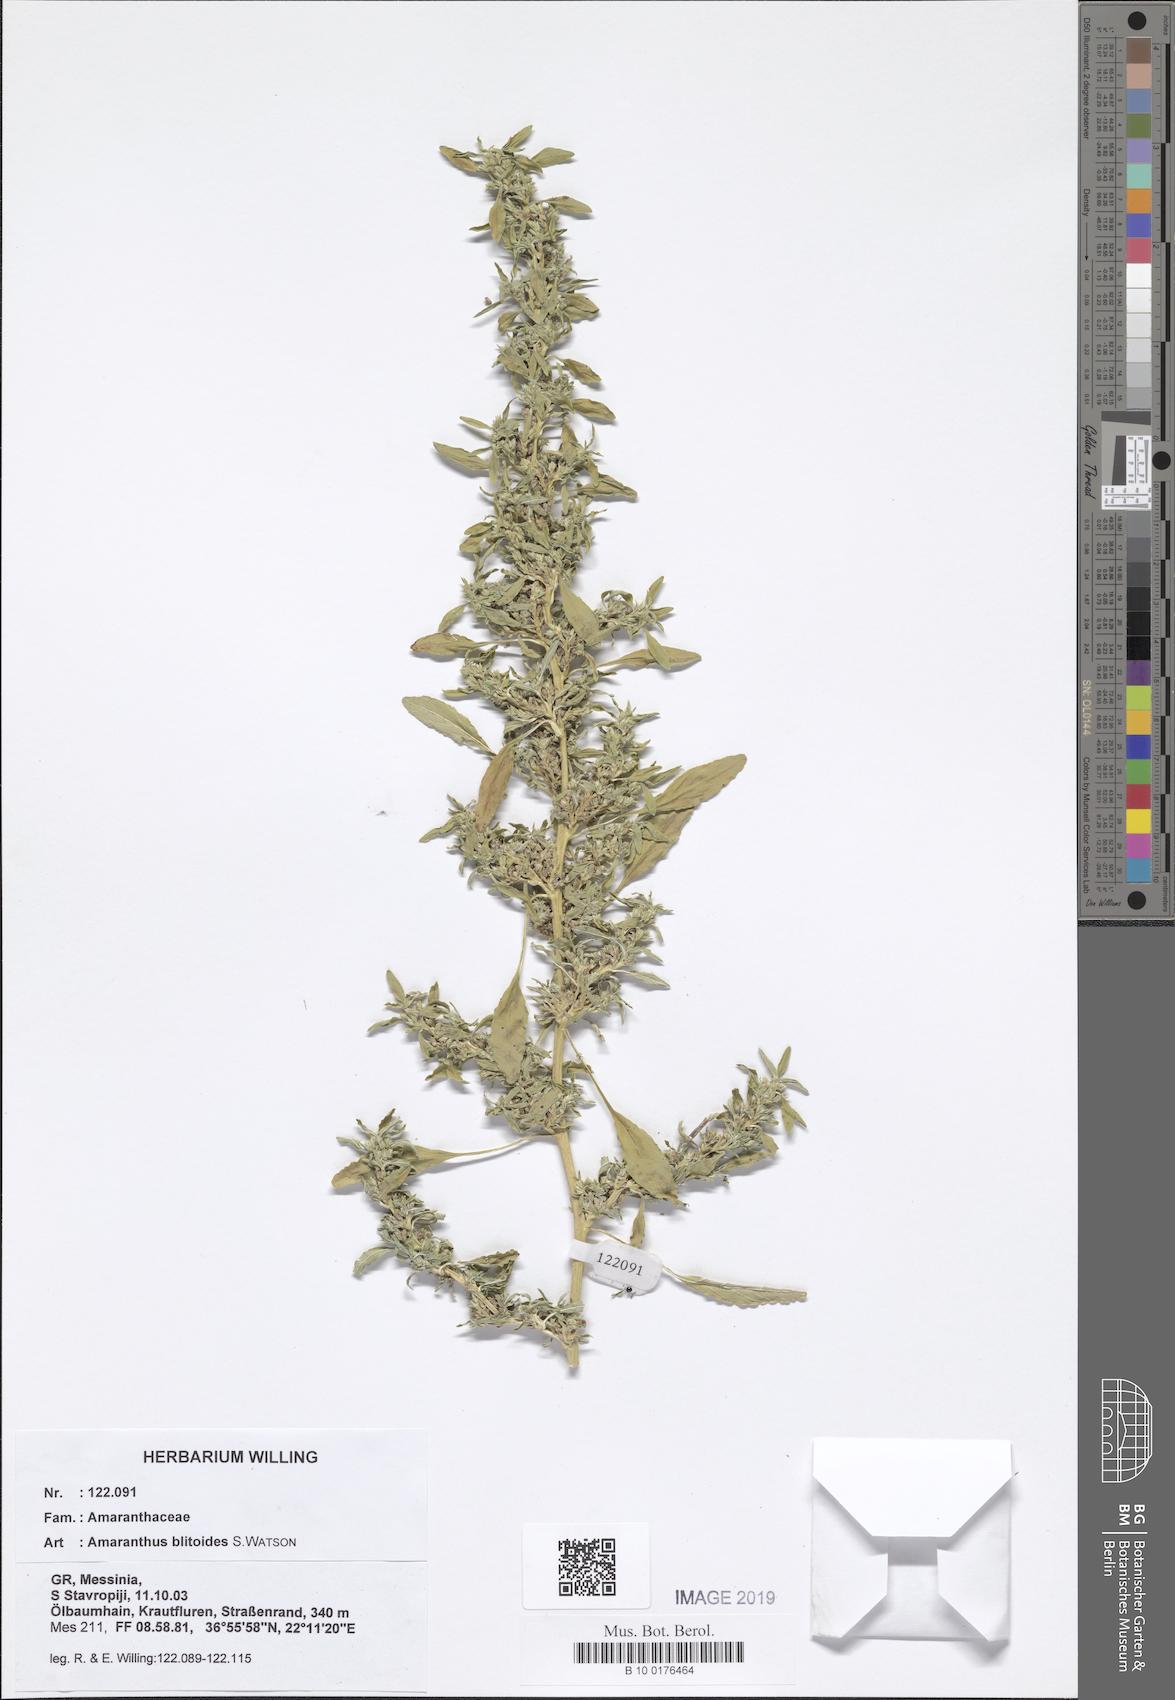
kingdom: Plantae
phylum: Tracheophyta
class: Magnoliopsida
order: Caryophyllales
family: Amaranthaceae
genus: Amaranthus
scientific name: Amaranthus blitoides
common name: Prostrate pigweed
